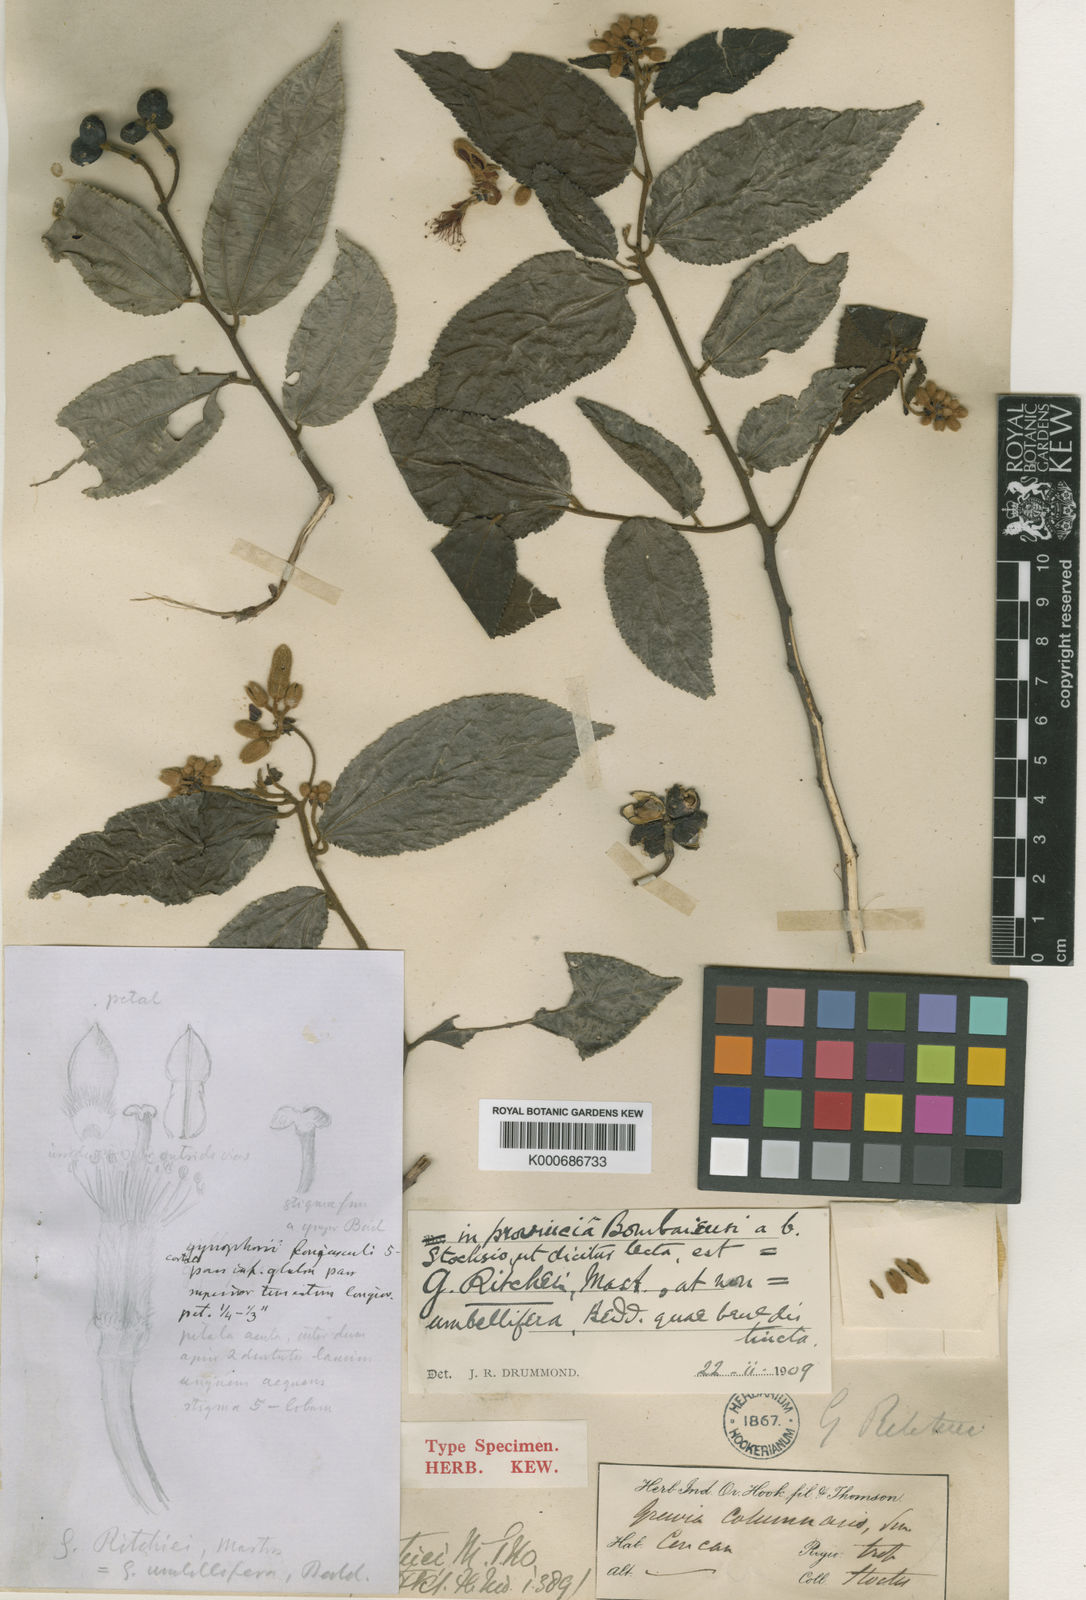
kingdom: Plantae
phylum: Tracheophyta
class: Magnoliopsida
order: Malvales
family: Malvaceae
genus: Grewia
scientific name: Grewia ritchiei
